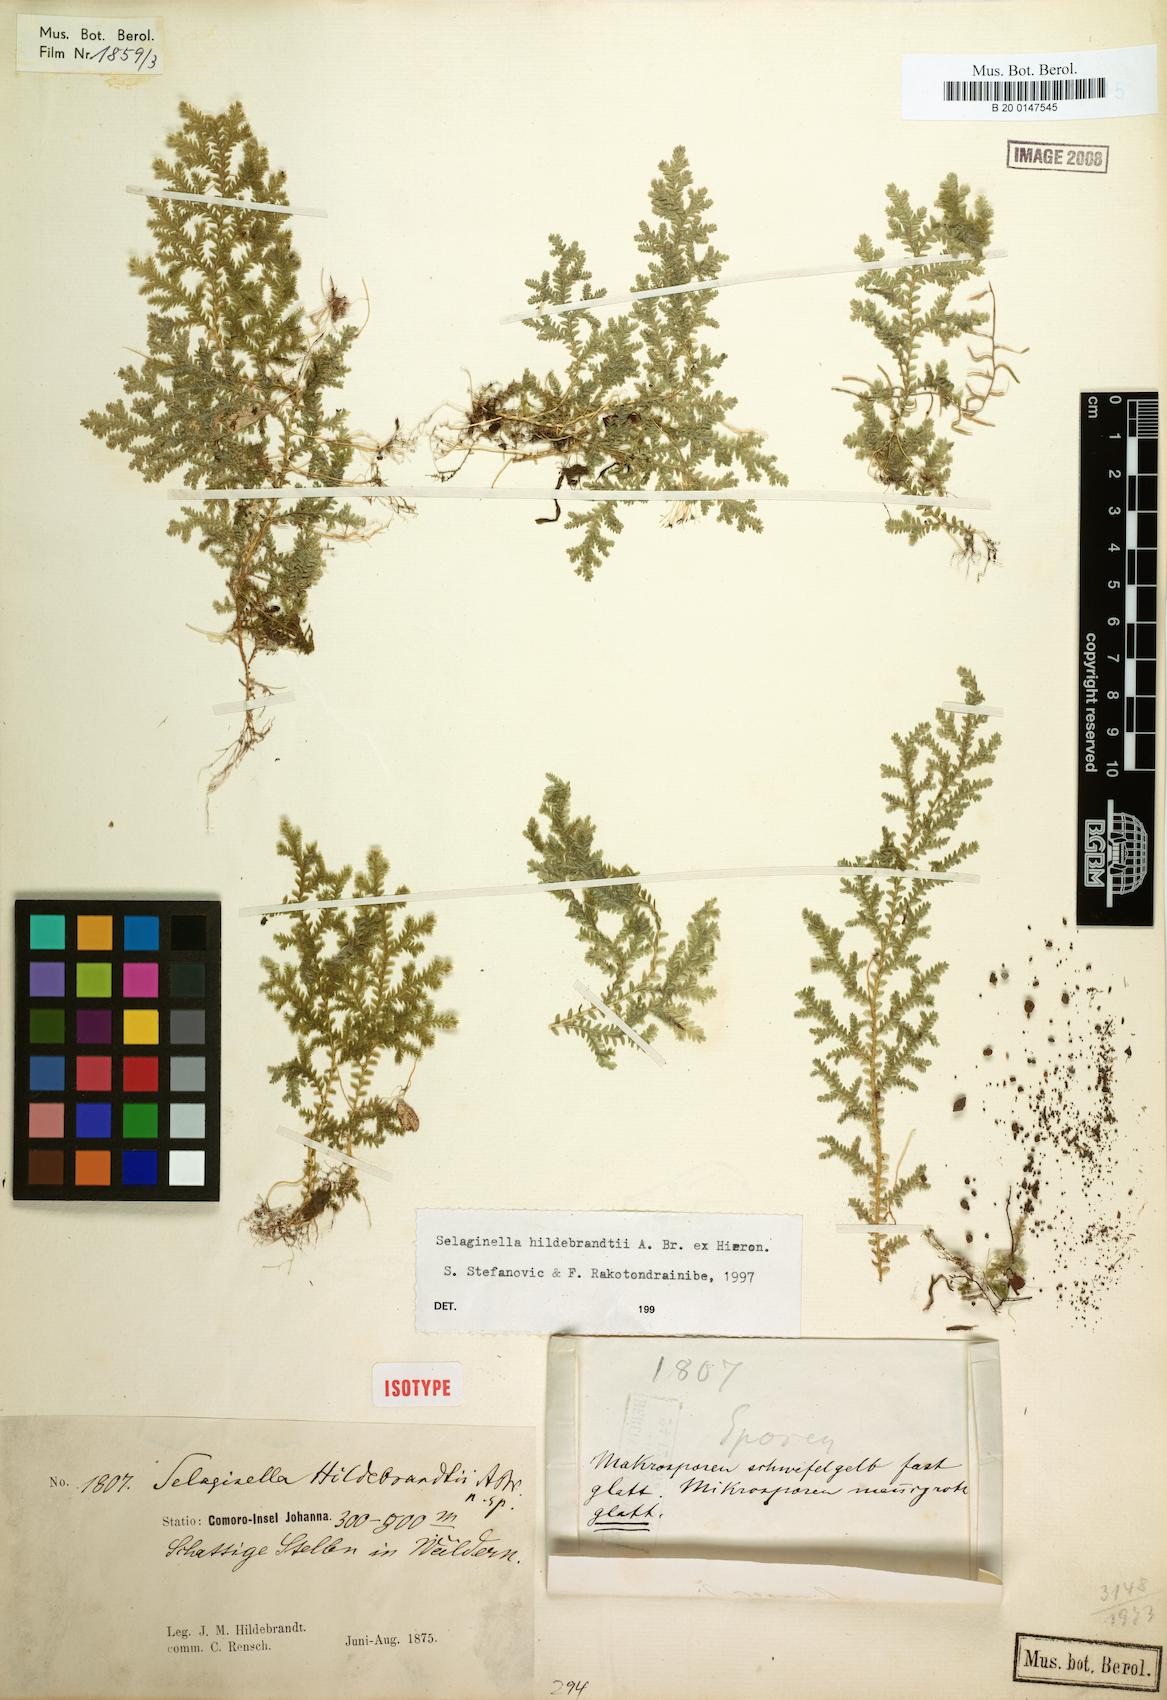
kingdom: Plantae
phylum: Tracheophyta
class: Lycopodiopsida
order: Selaginellales
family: Selaginellaceae
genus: Selaginella
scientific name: Selaginella hildebrandtii
